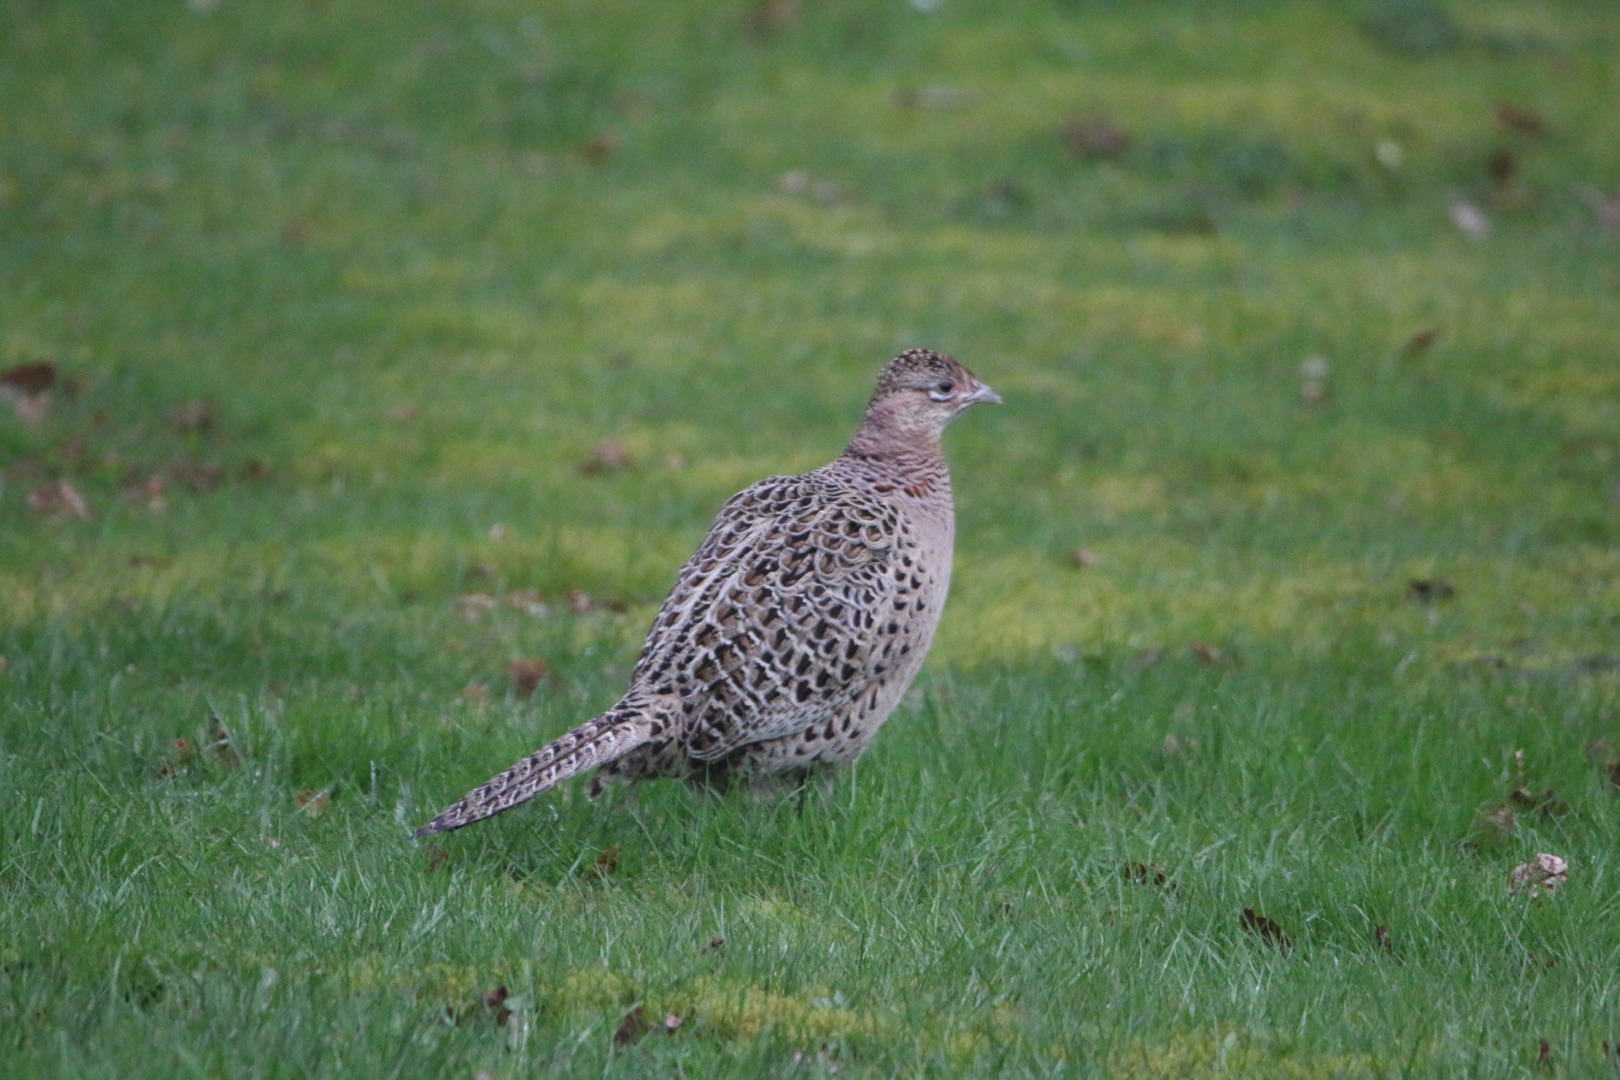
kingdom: Animalia
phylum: Chordata
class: Aves
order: Galliformes
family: Phasianidae
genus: Phasianus
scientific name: Phasianus colchicus
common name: Fasan
